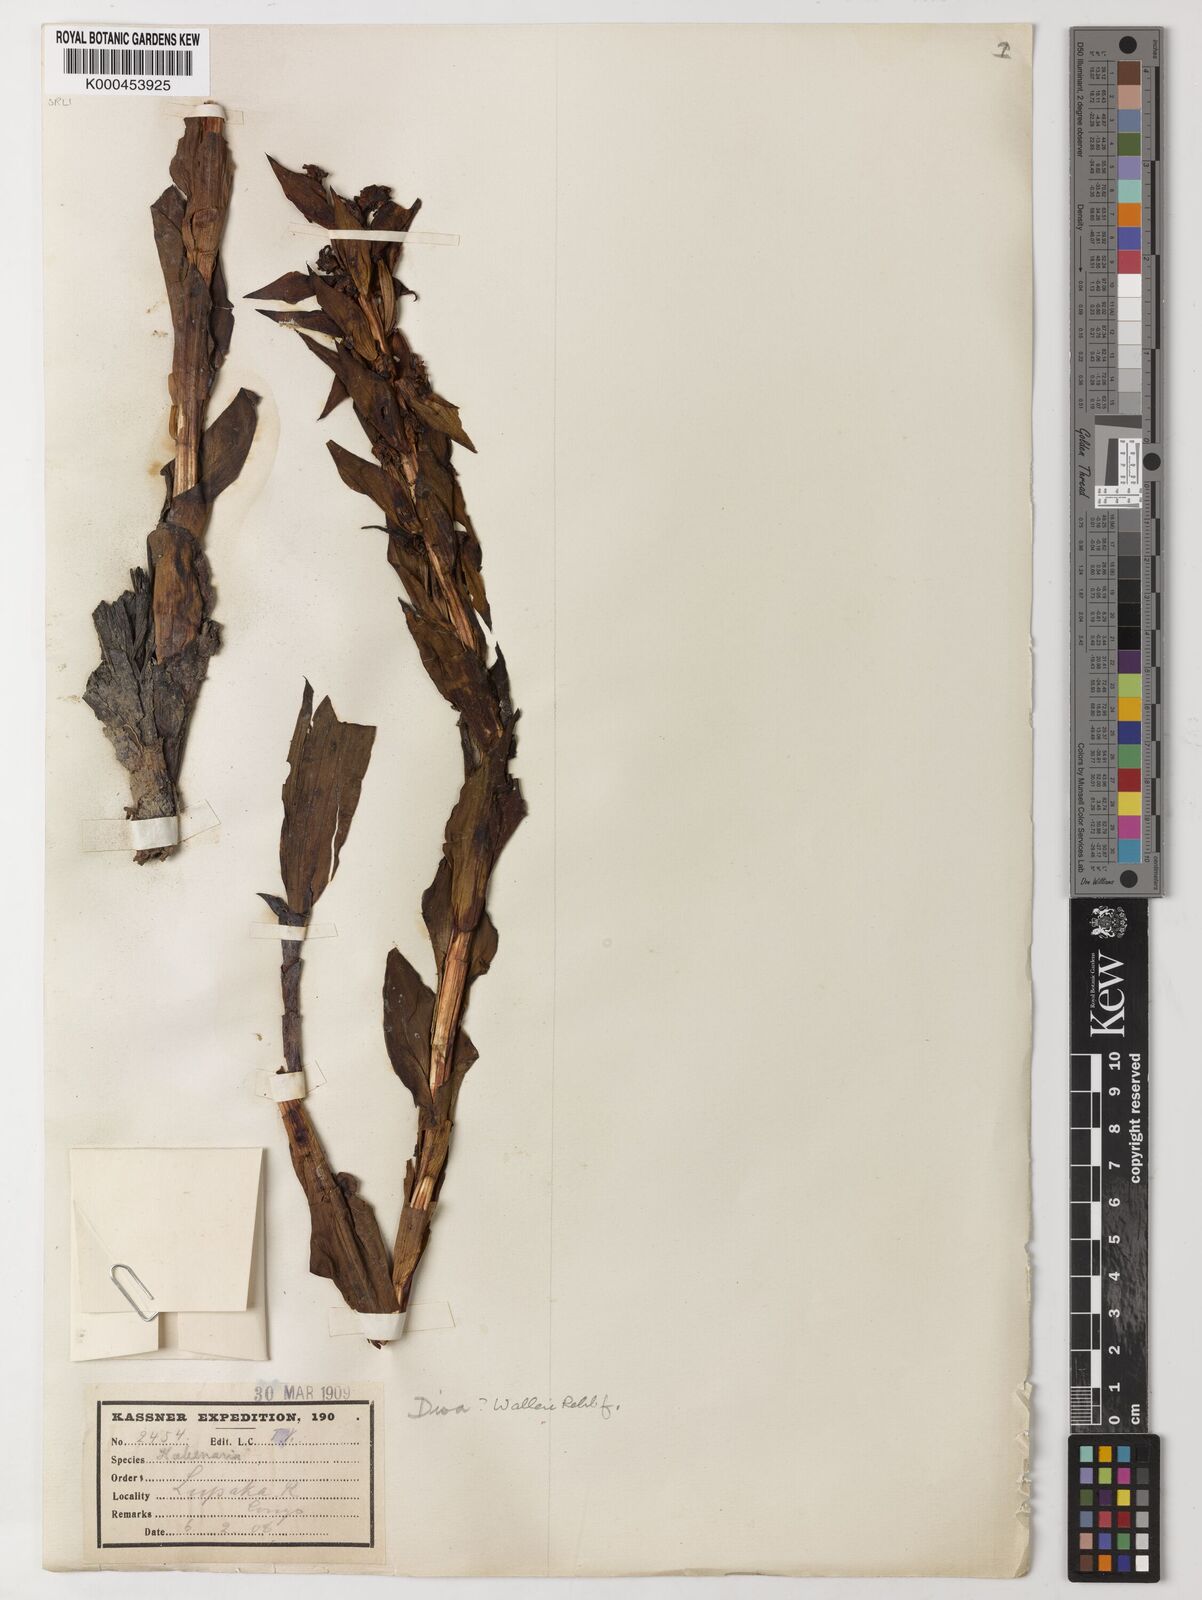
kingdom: Plantae
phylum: Tracheophyta
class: Liliopsida
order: Asparagales
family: Orchidaceae
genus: Disa
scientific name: Disa walleri
